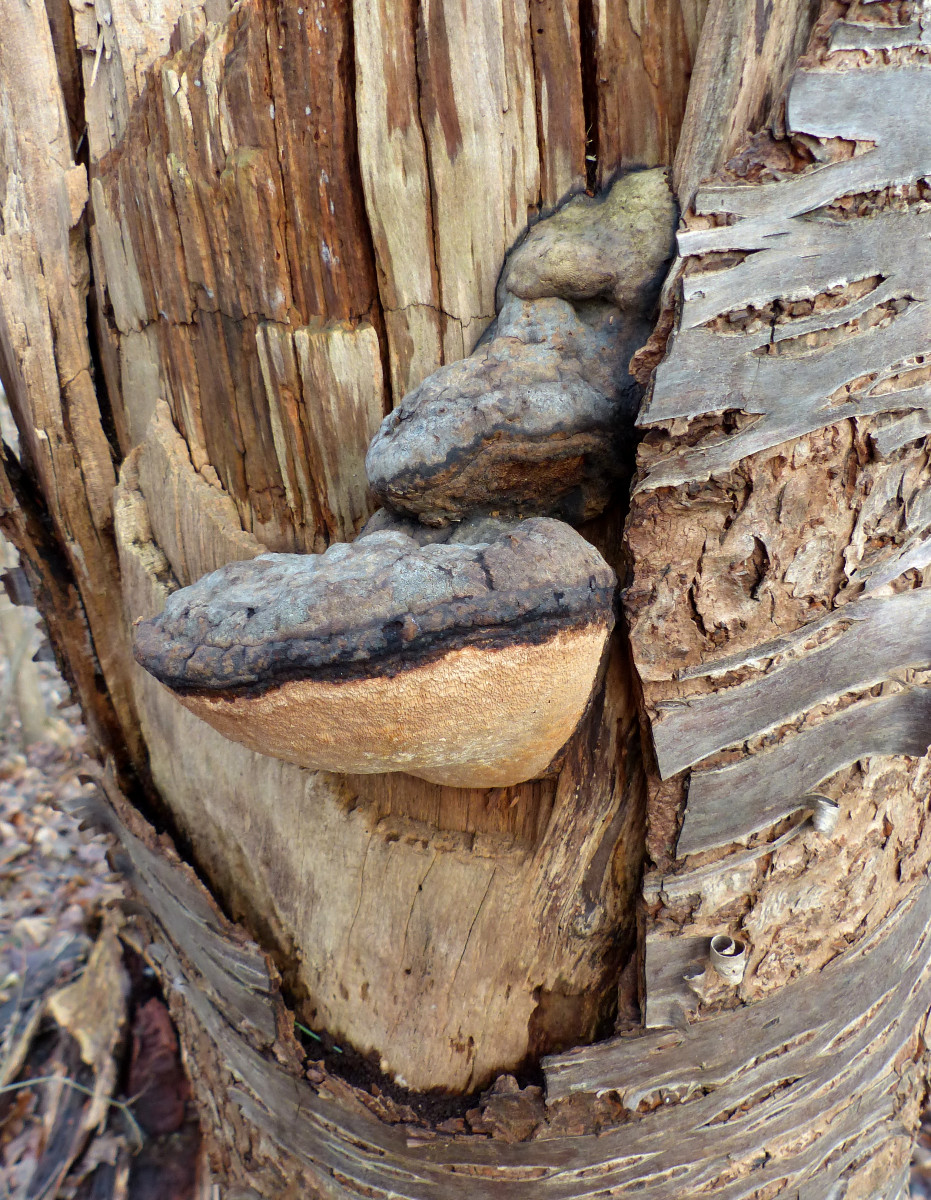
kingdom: Fungi
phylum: Basidiomycota
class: Agaricomycetes
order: Hymenochaetales
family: Hymenochaetaceae
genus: Phellinus
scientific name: Phellinus pomaceus
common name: blomme-ildporesvamp
